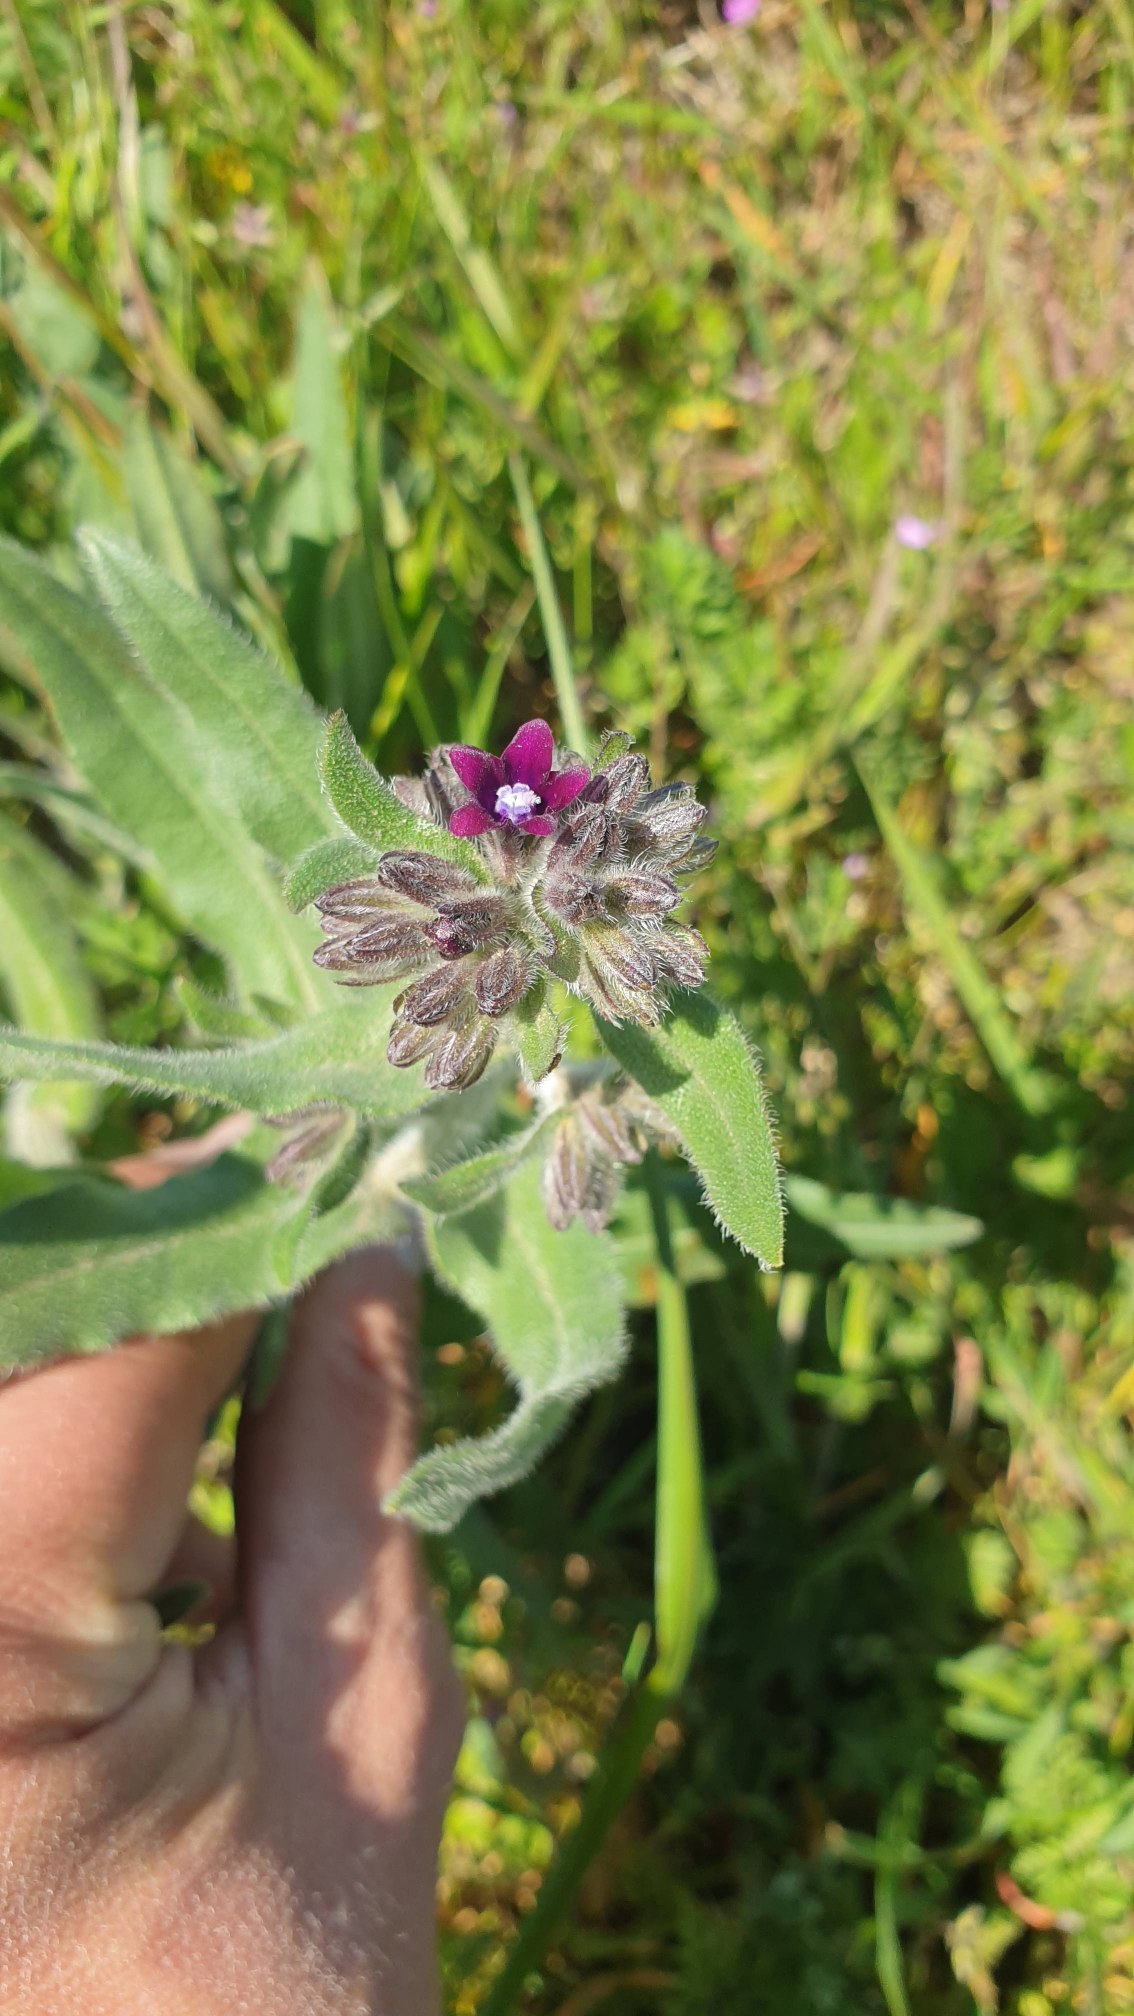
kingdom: Plantae
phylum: Tracheophyta
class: Magnoliopsida
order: Boraginales
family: Boraginaceae
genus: Anchusa
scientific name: Anchusa officinalis
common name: Læge-oksetunge
